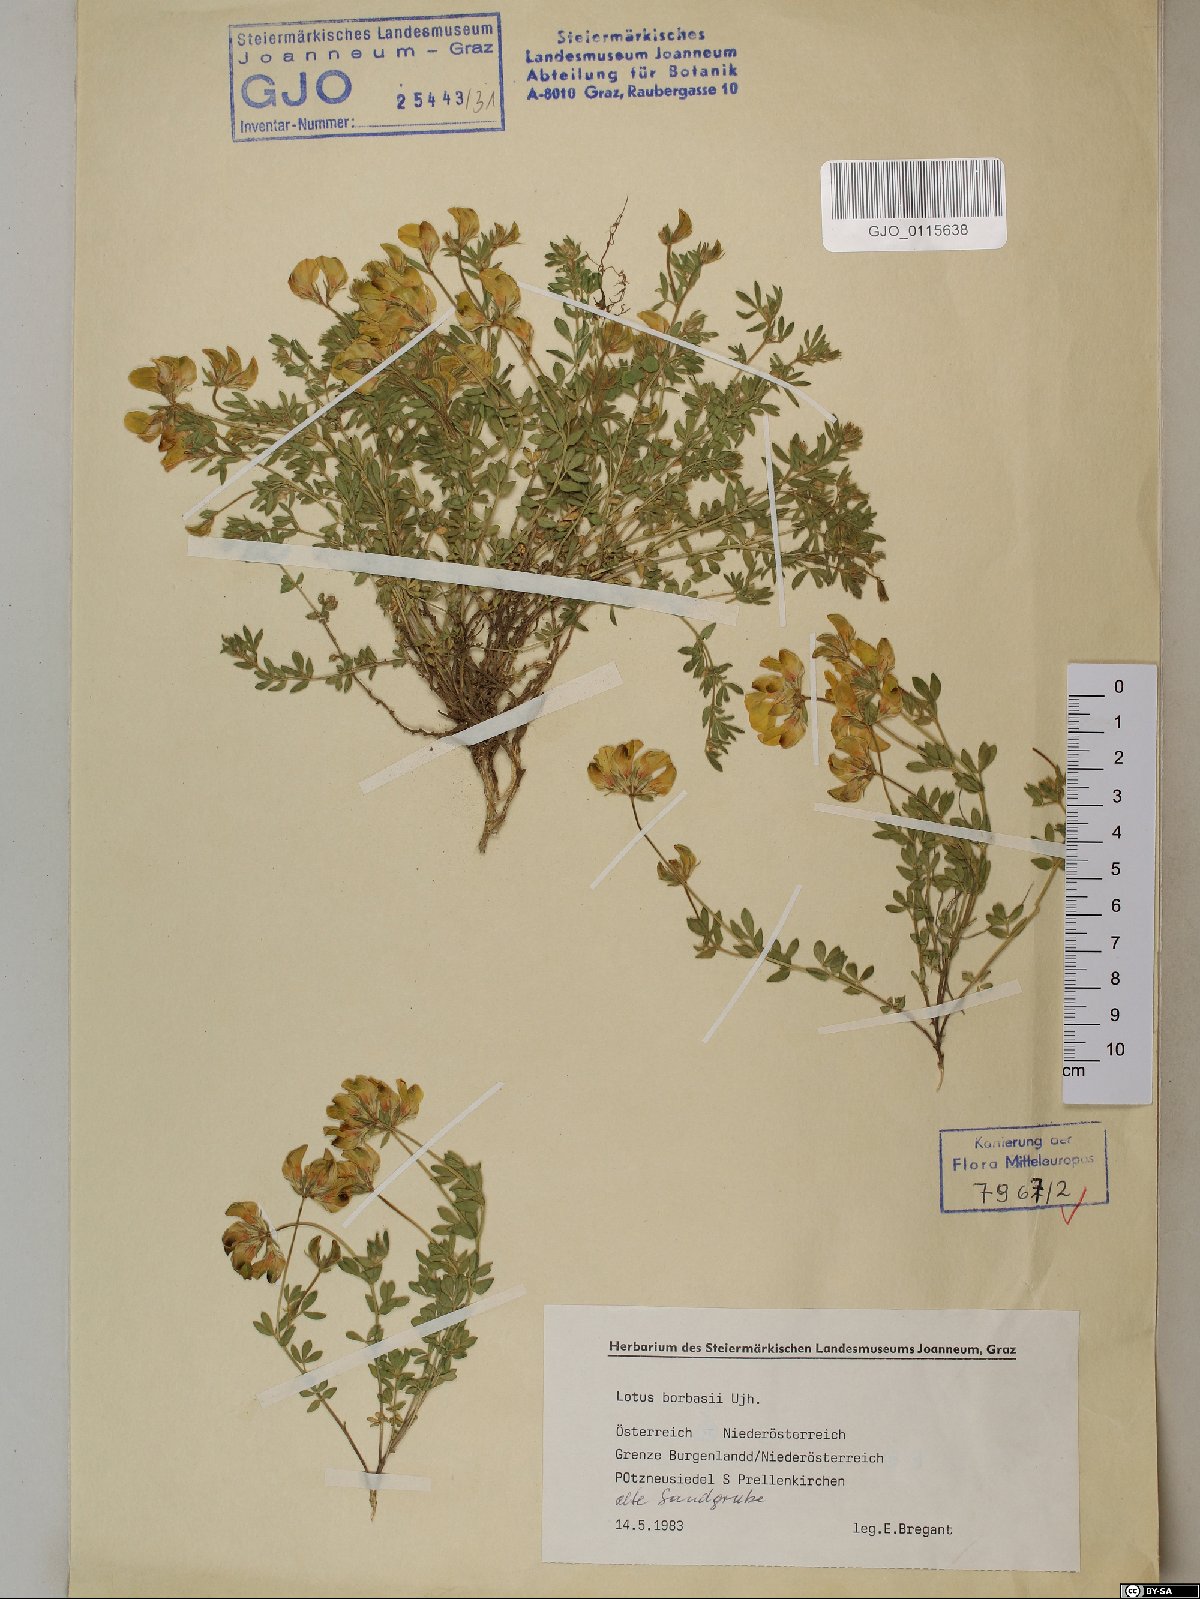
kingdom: Plantae
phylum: Tracheophyta
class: Magnoliopsida
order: Fabales
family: Fabaceae
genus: Lotus
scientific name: Lotus borbasii
